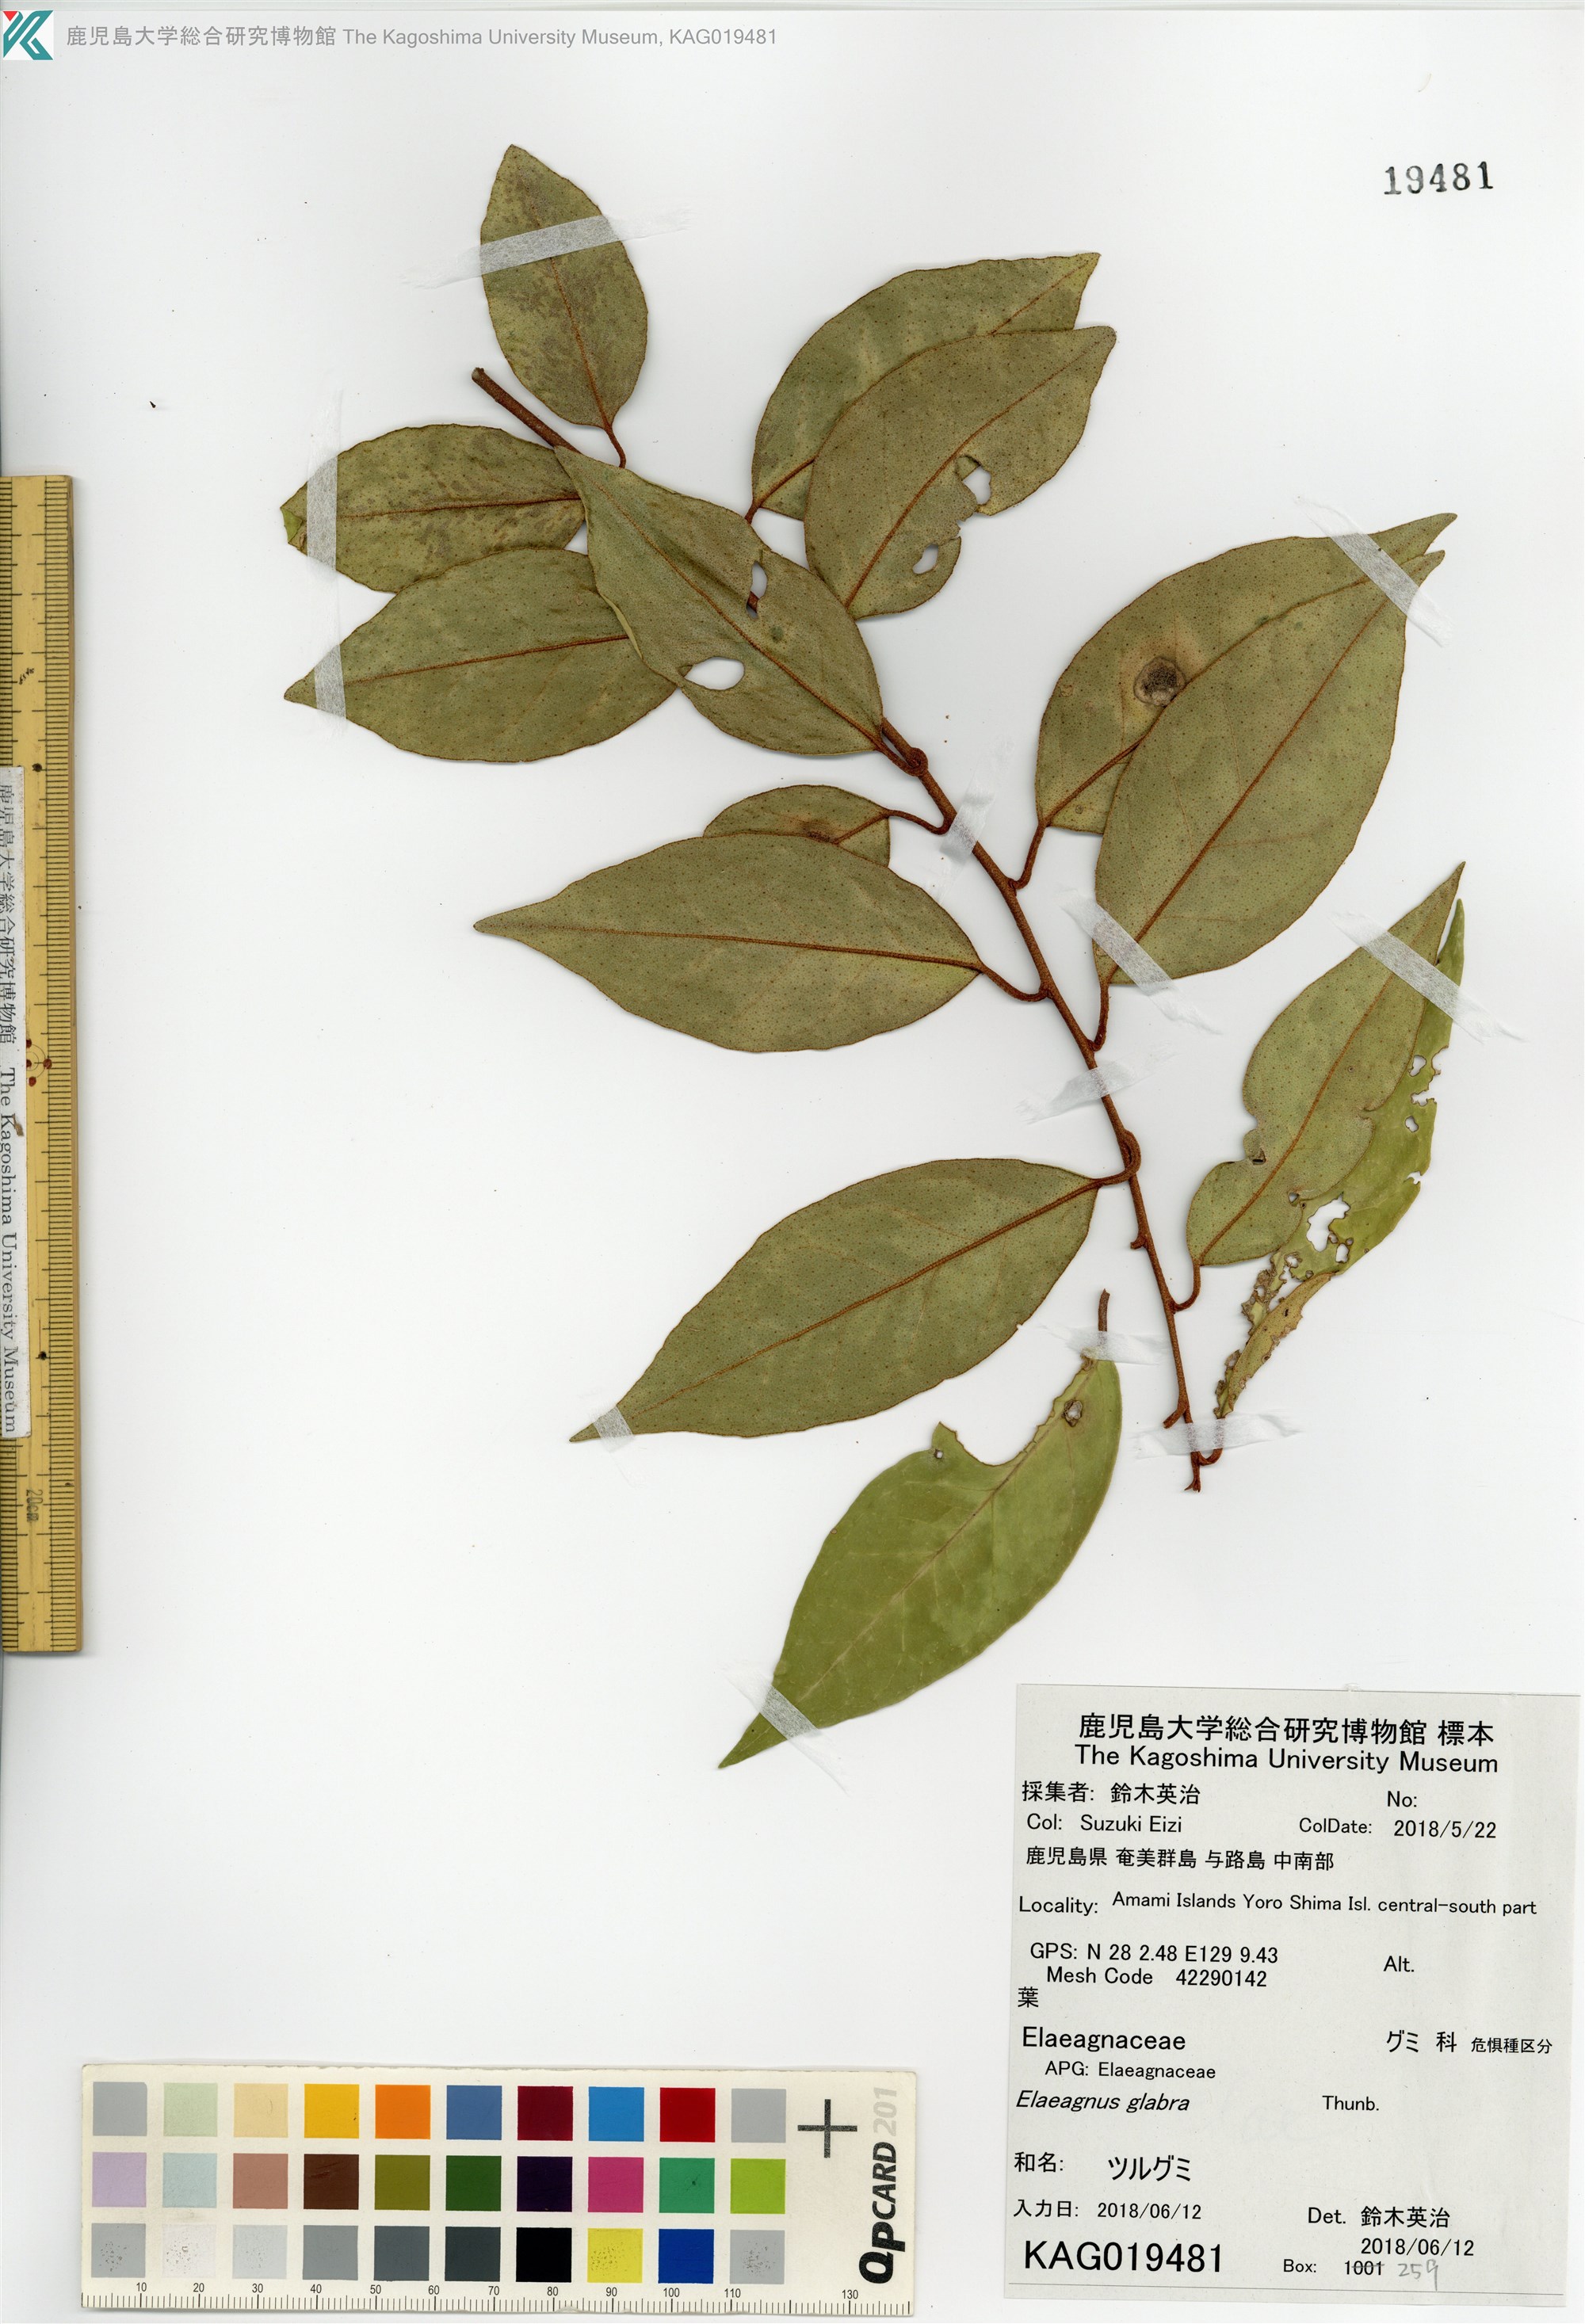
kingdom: Plantae
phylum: Tracheophyta
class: Magnoliopsida
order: Rosales
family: Elaeagnaceae
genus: Elaeagnus
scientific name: Elaeagnus glabra
